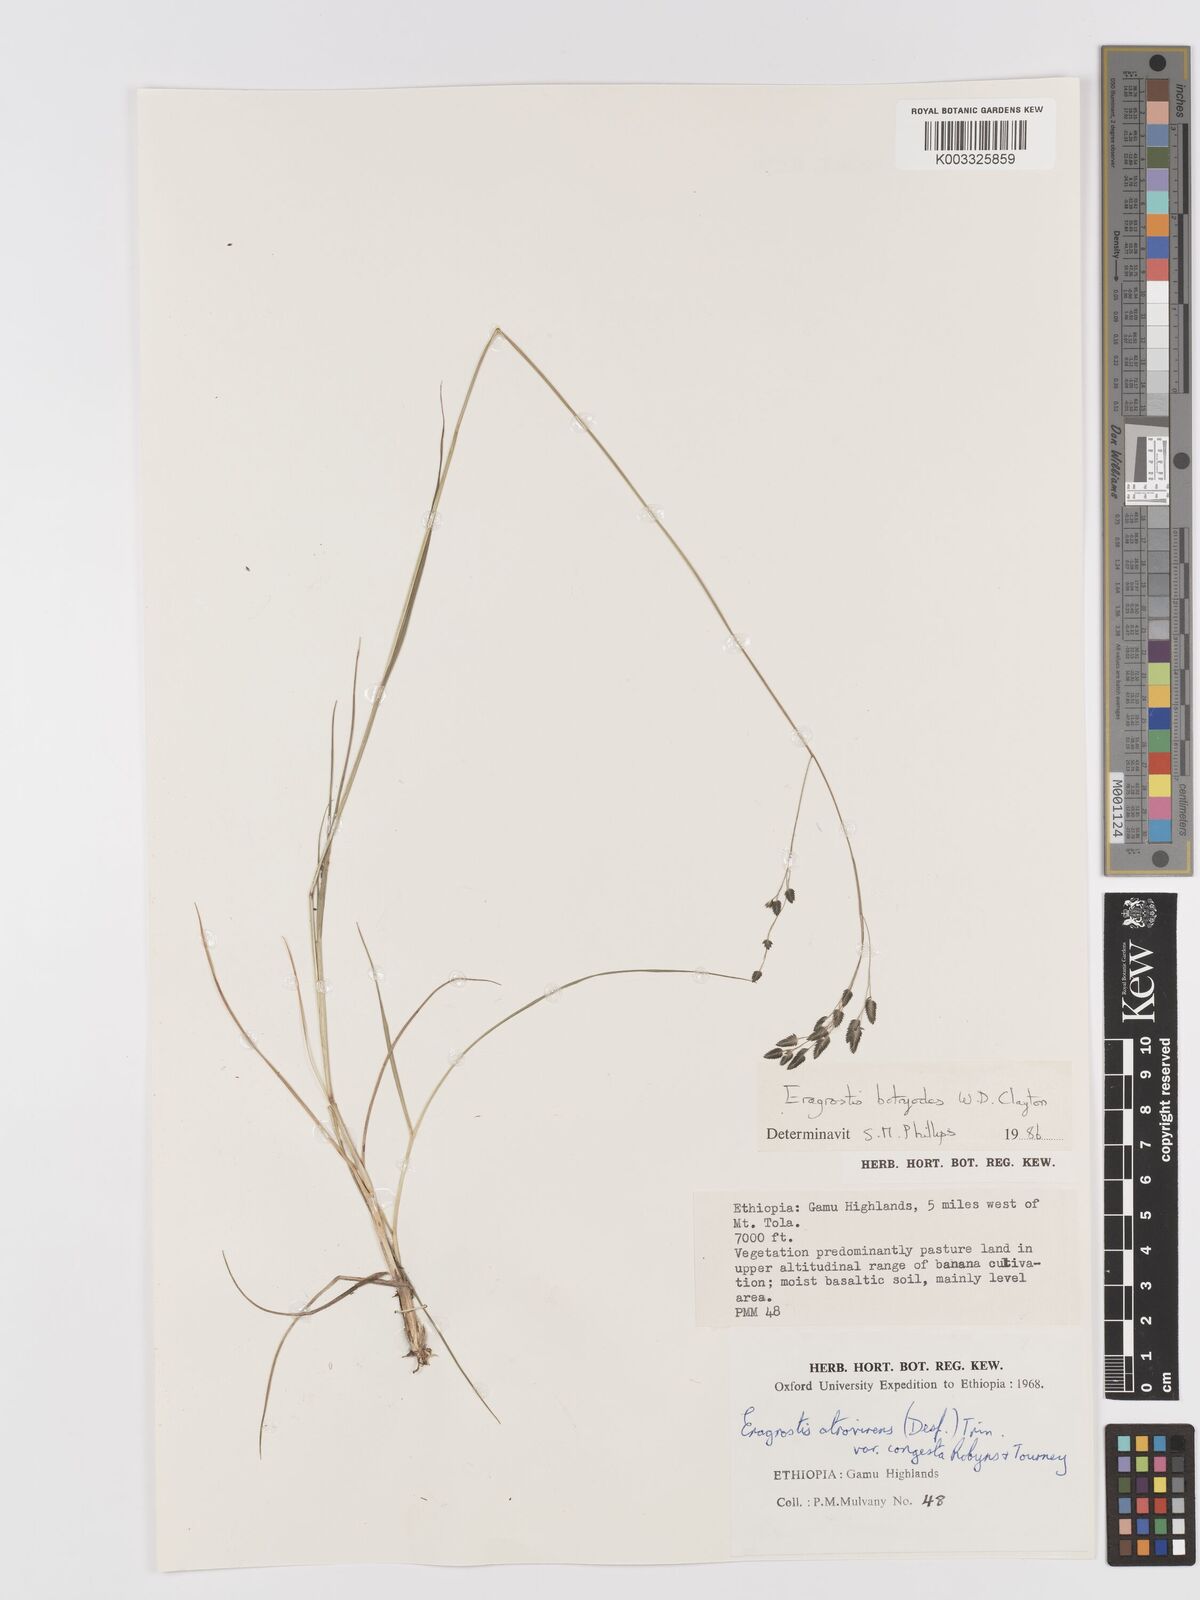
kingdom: Plantae
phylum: Tracheophyta
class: Liliopsida
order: Poales
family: Poaceae
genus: Eragrostis
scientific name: Eragrostis botryodes
